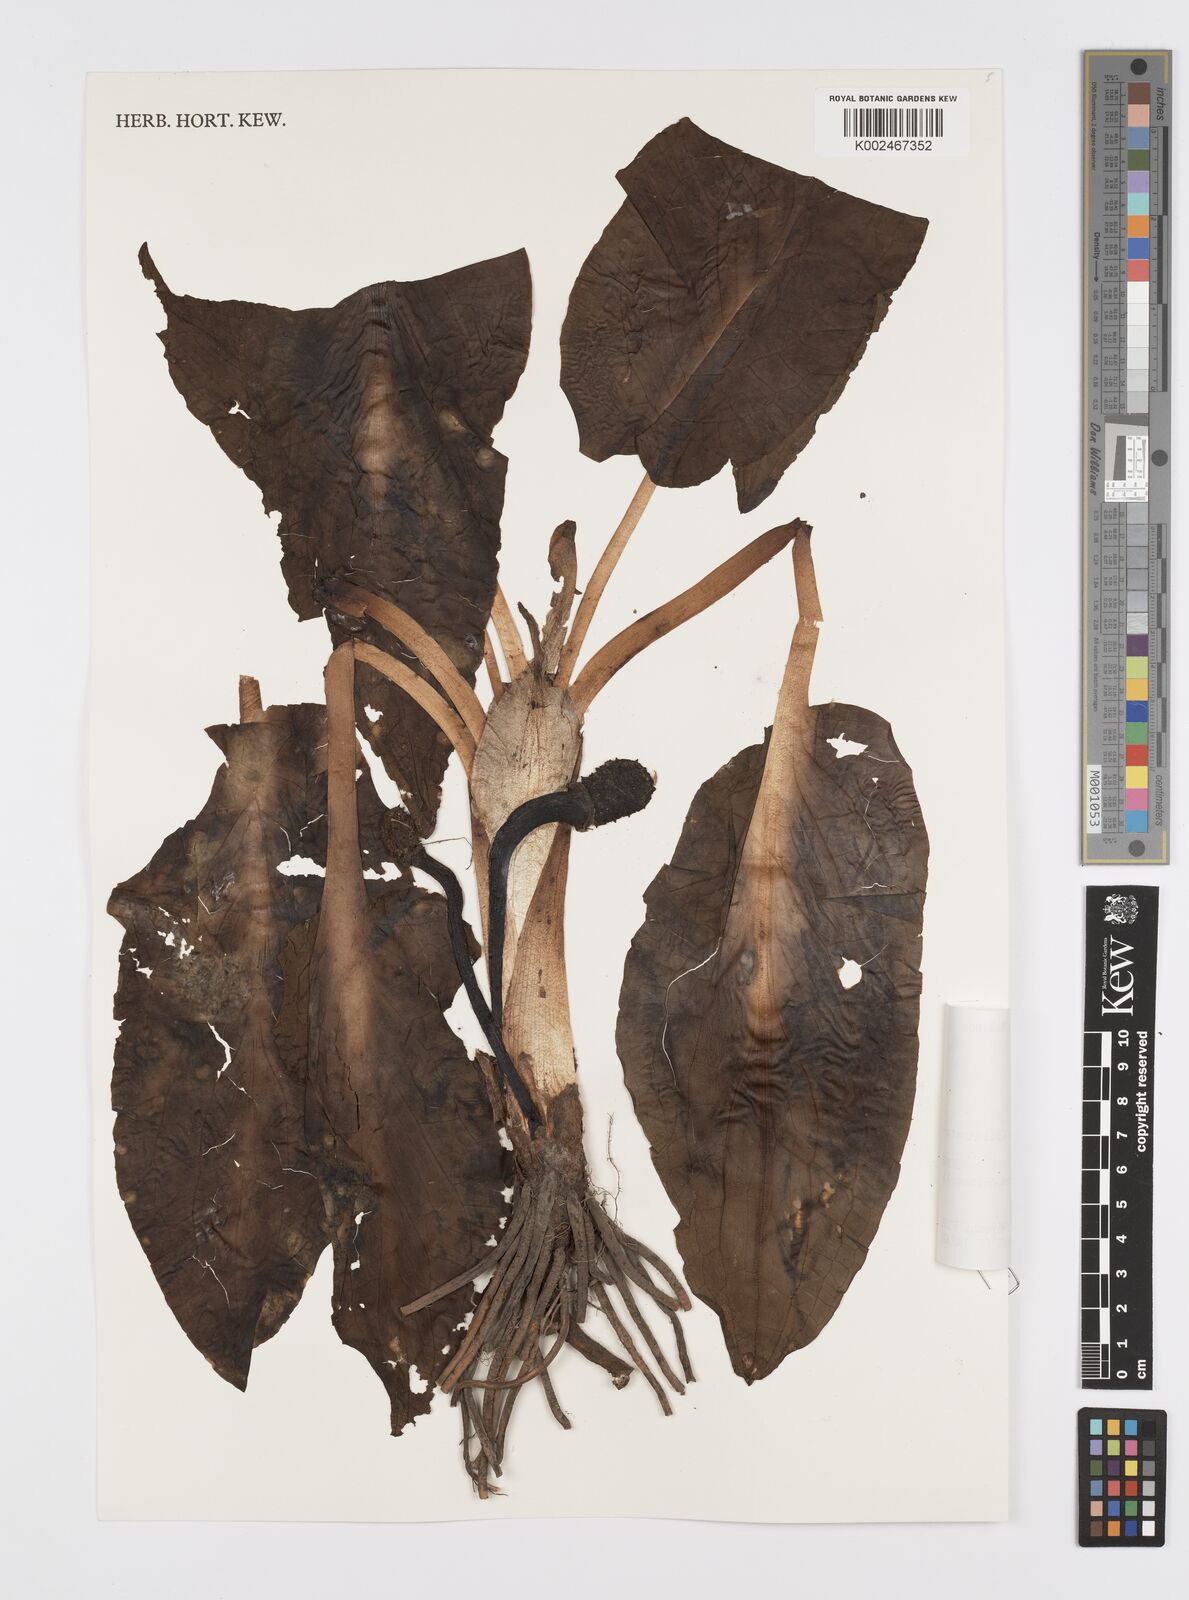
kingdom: Plantae
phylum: Tracheophyta
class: Liliopsida
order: Alismatales
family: Araceae
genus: Symplocarpus
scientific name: Symplocarpus nipponicus
